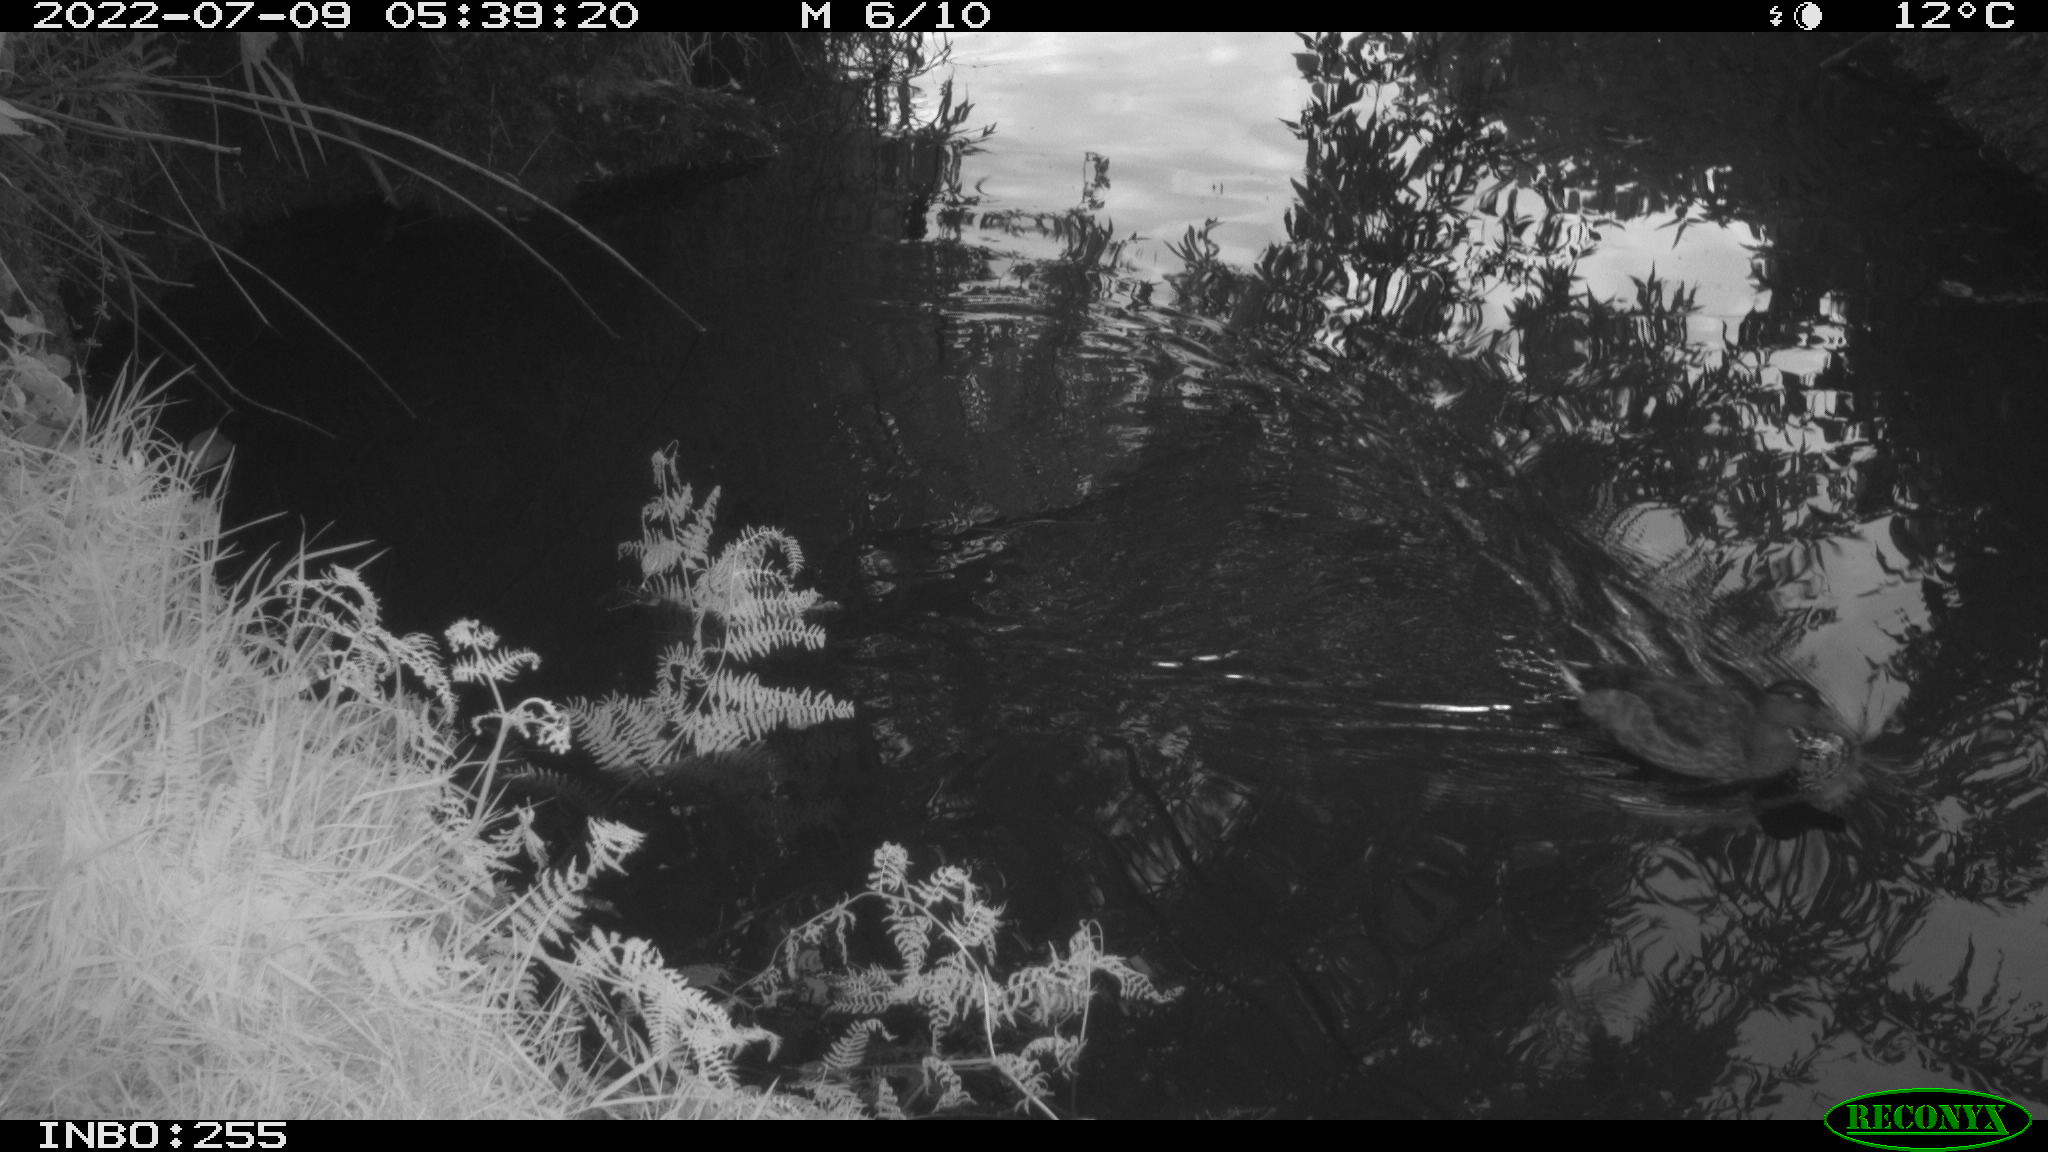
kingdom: Animalia
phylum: Chordata
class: Aves
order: Anseriformes
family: Anatidae
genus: Anas
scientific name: Anas platyrhynchos
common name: Mallard
